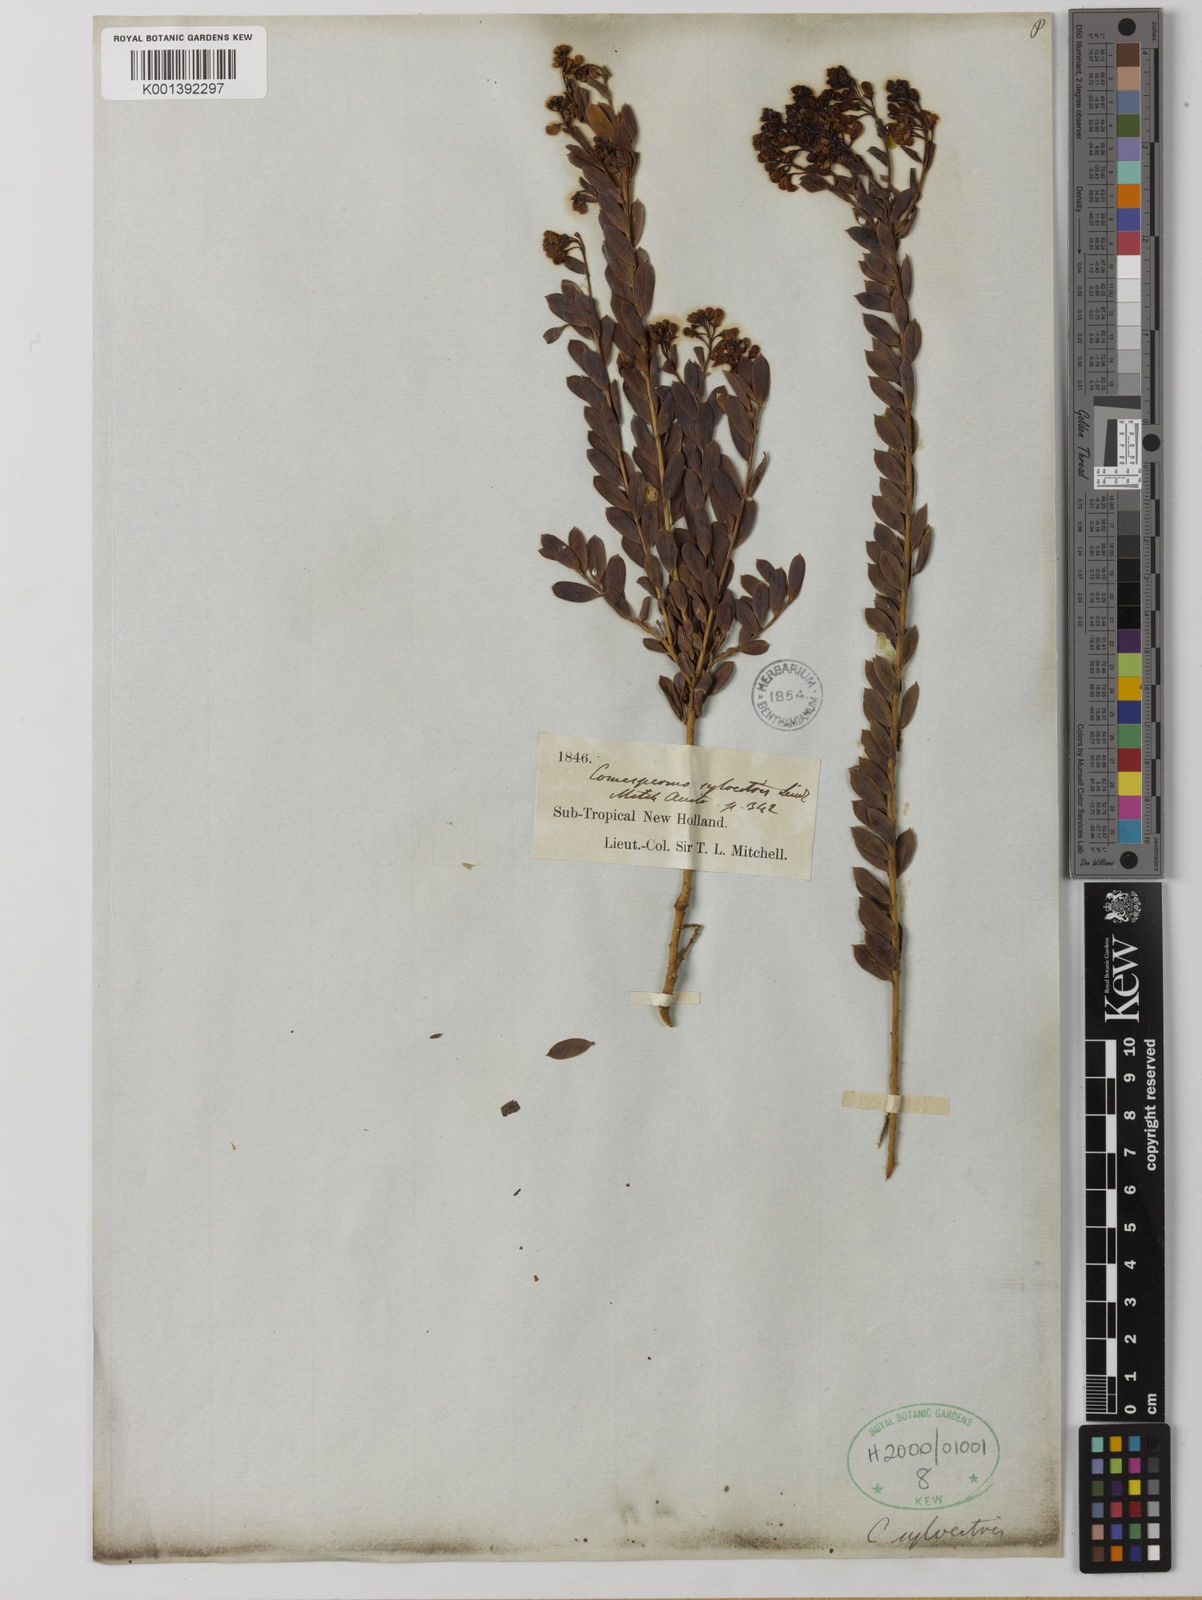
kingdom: Plantae
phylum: Tracheophyta
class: Magnoliopsida
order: Fabales
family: Polygalaceae
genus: Comesperma
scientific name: Comesperma sylvestre
